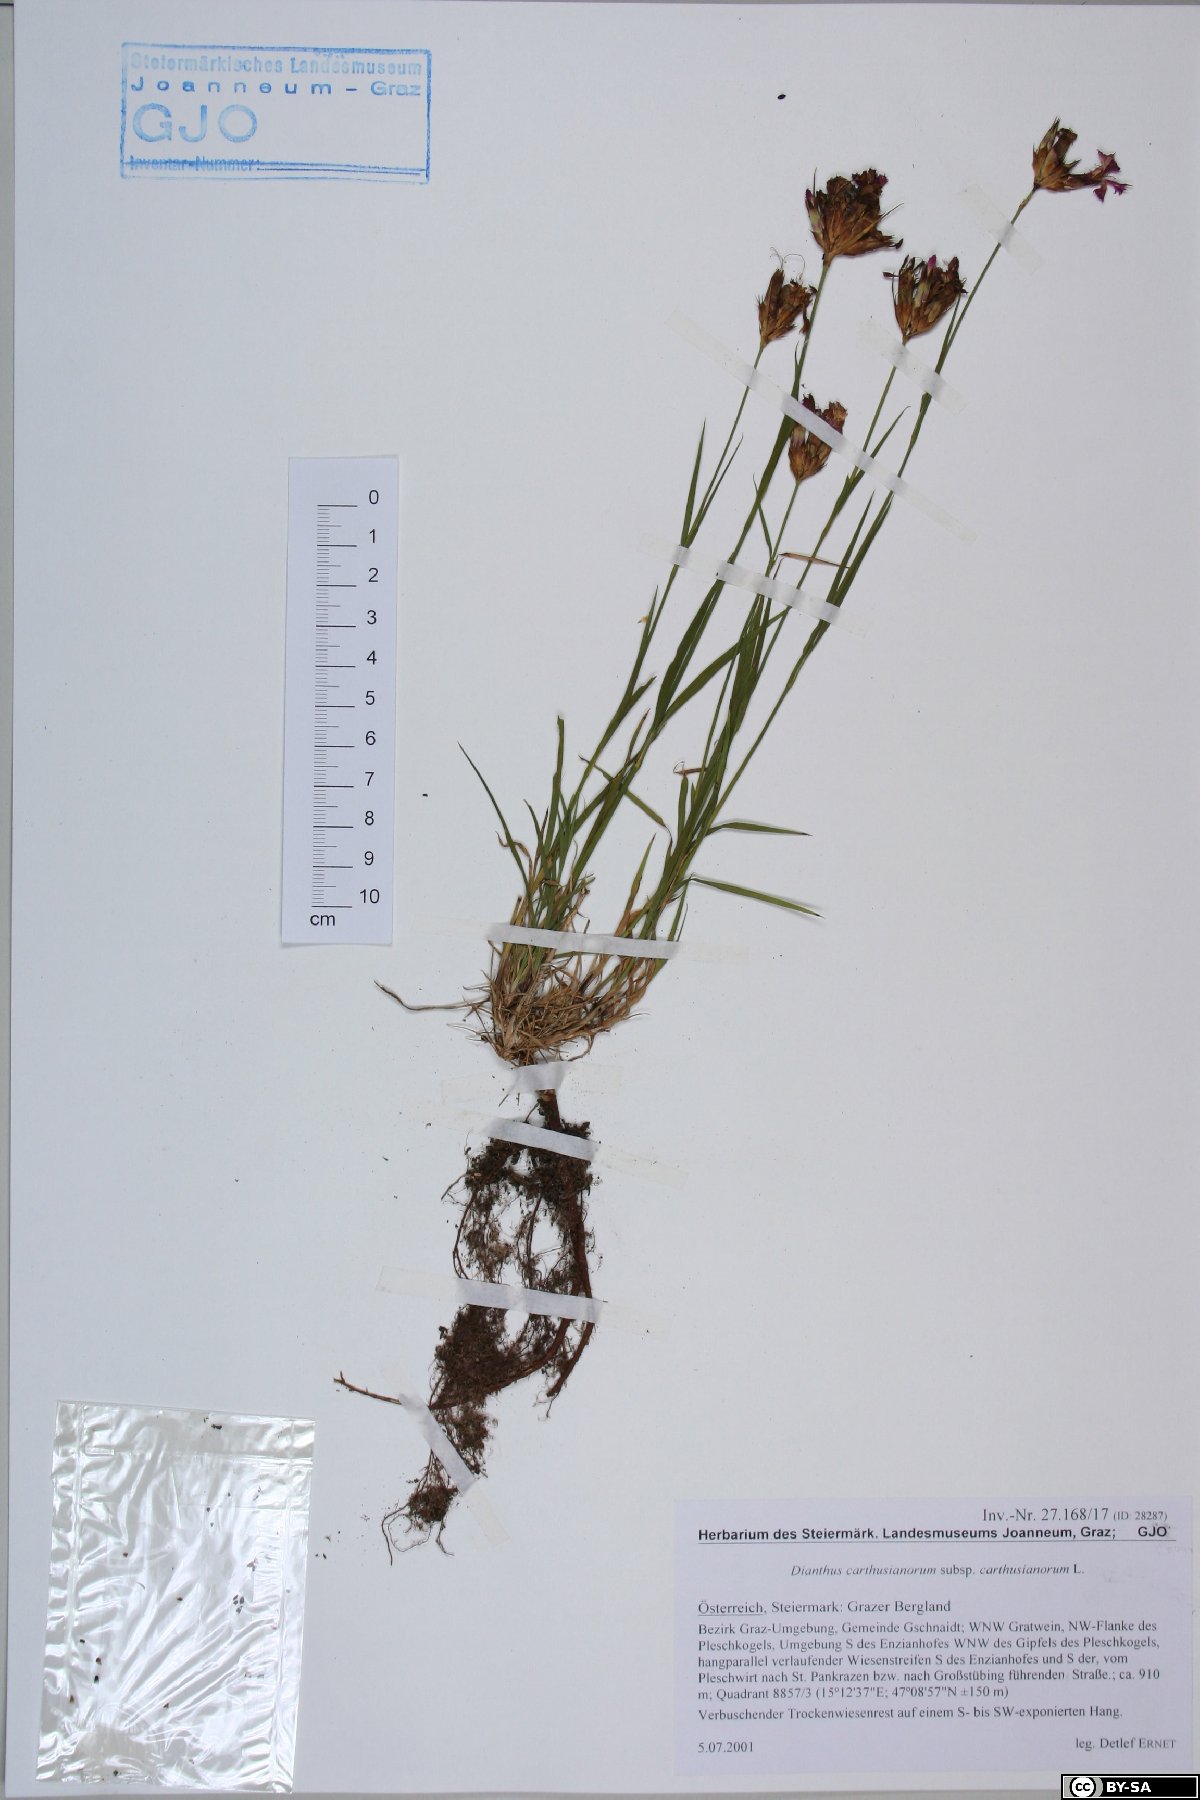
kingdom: Plantae
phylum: Tracheophyta
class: Magnoliopsida
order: Caryophyllales
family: Caryophyllaceae
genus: Dianthus
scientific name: Dianthus carthusianorum
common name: Carthusian pink
